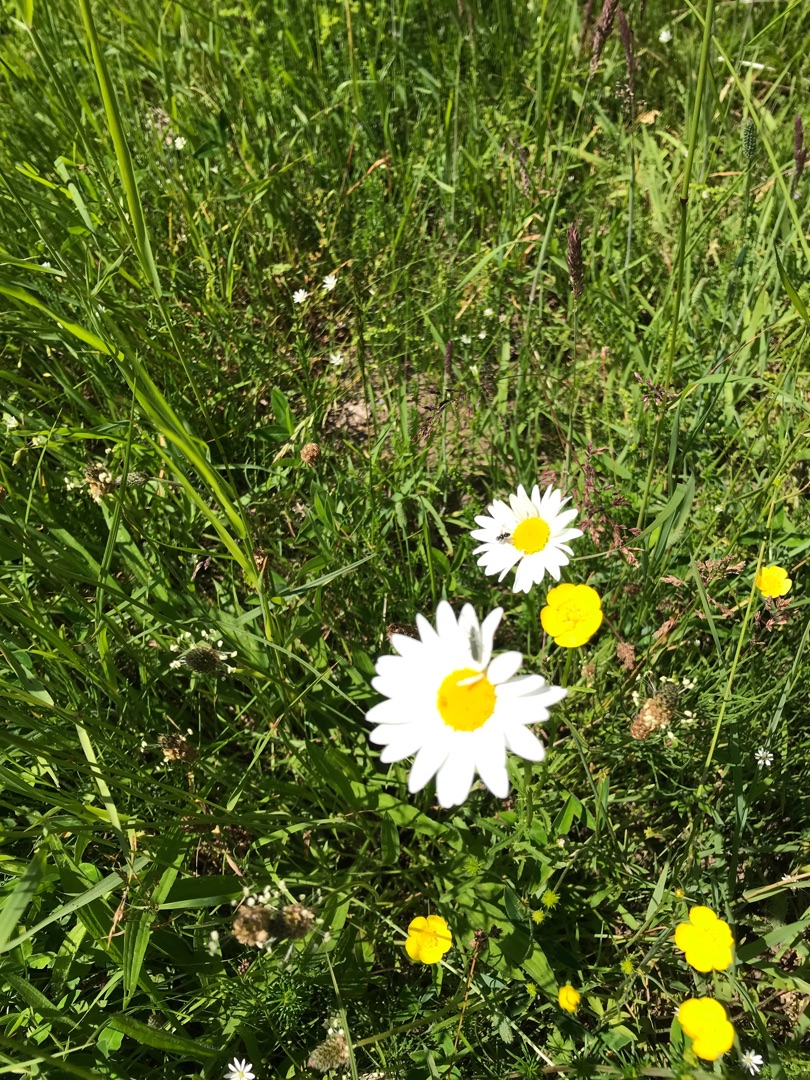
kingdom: Plantae
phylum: Tracheophyta
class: Magnoliopsida
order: Asterales
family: Asteraceae
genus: Leucanthemum
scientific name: Leucanthemum vulgare
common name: Hvid okseøje
